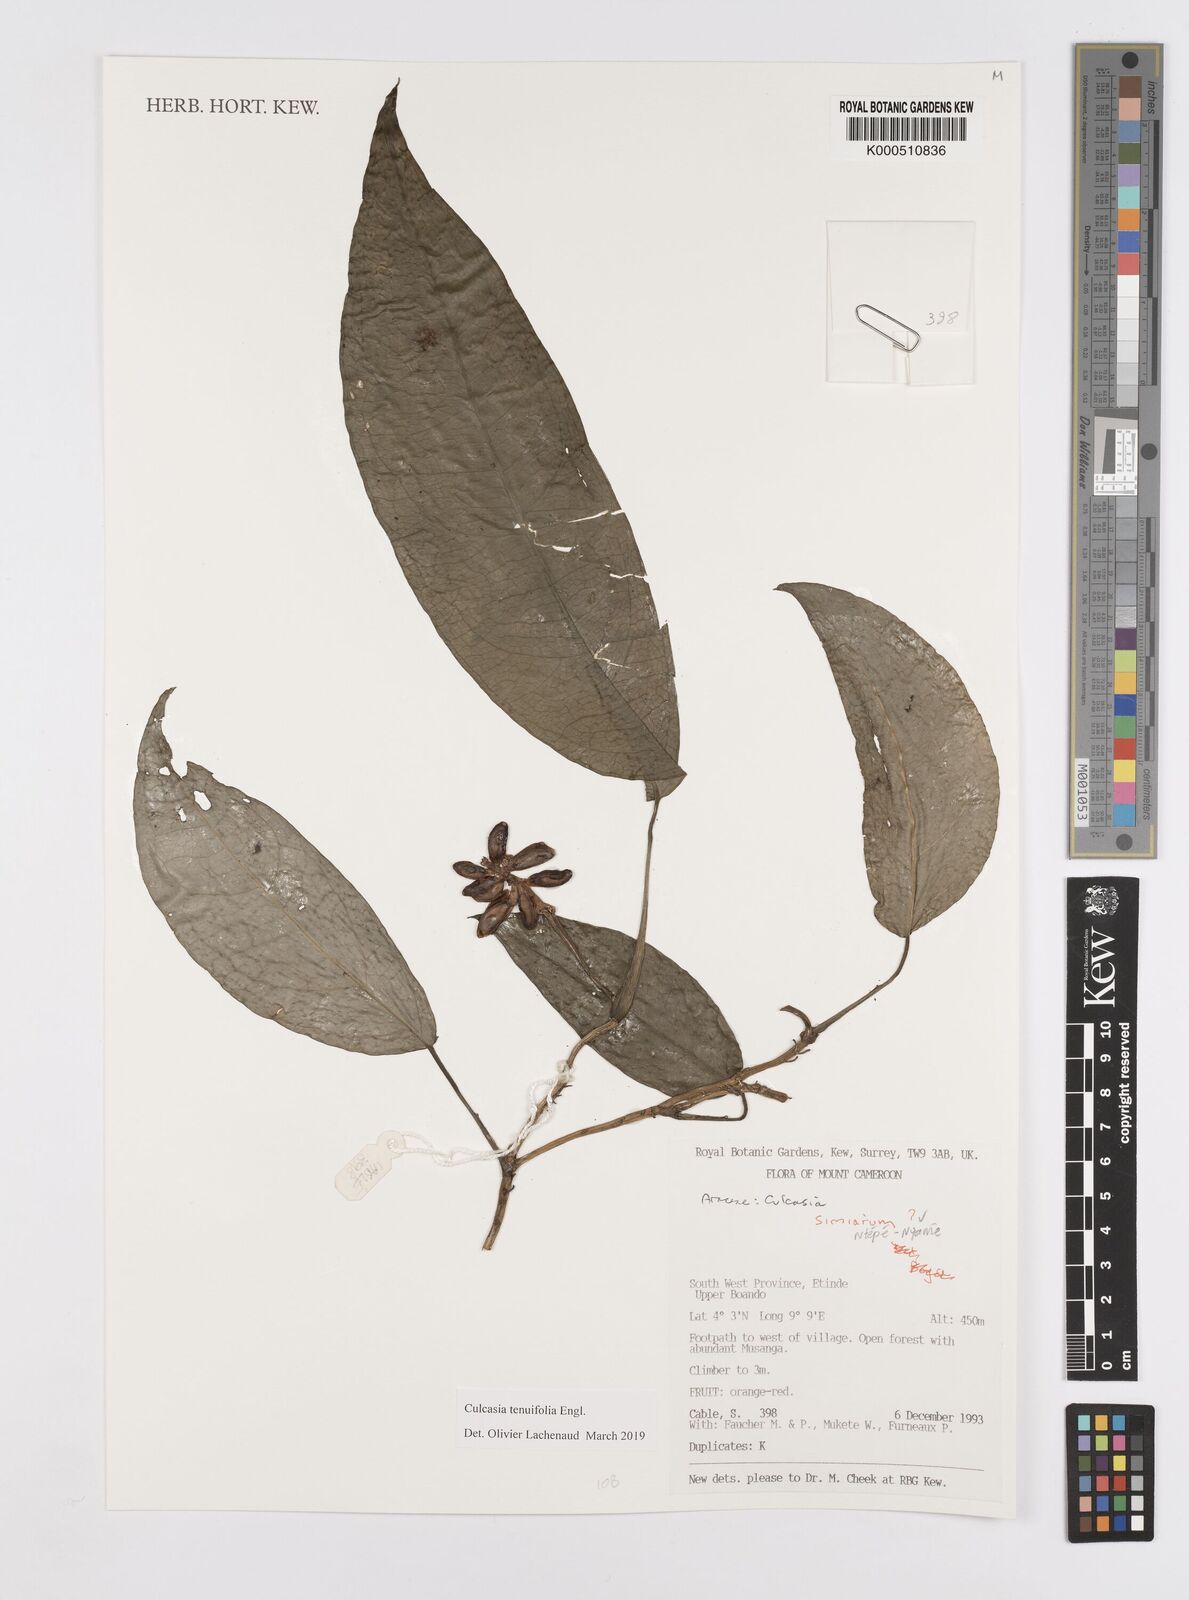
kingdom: Plantae
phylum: Tracheophyta
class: Liliopsida
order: Alismatales
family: Araceae
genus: Culcasia
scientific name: Culcasia tenuifolia
